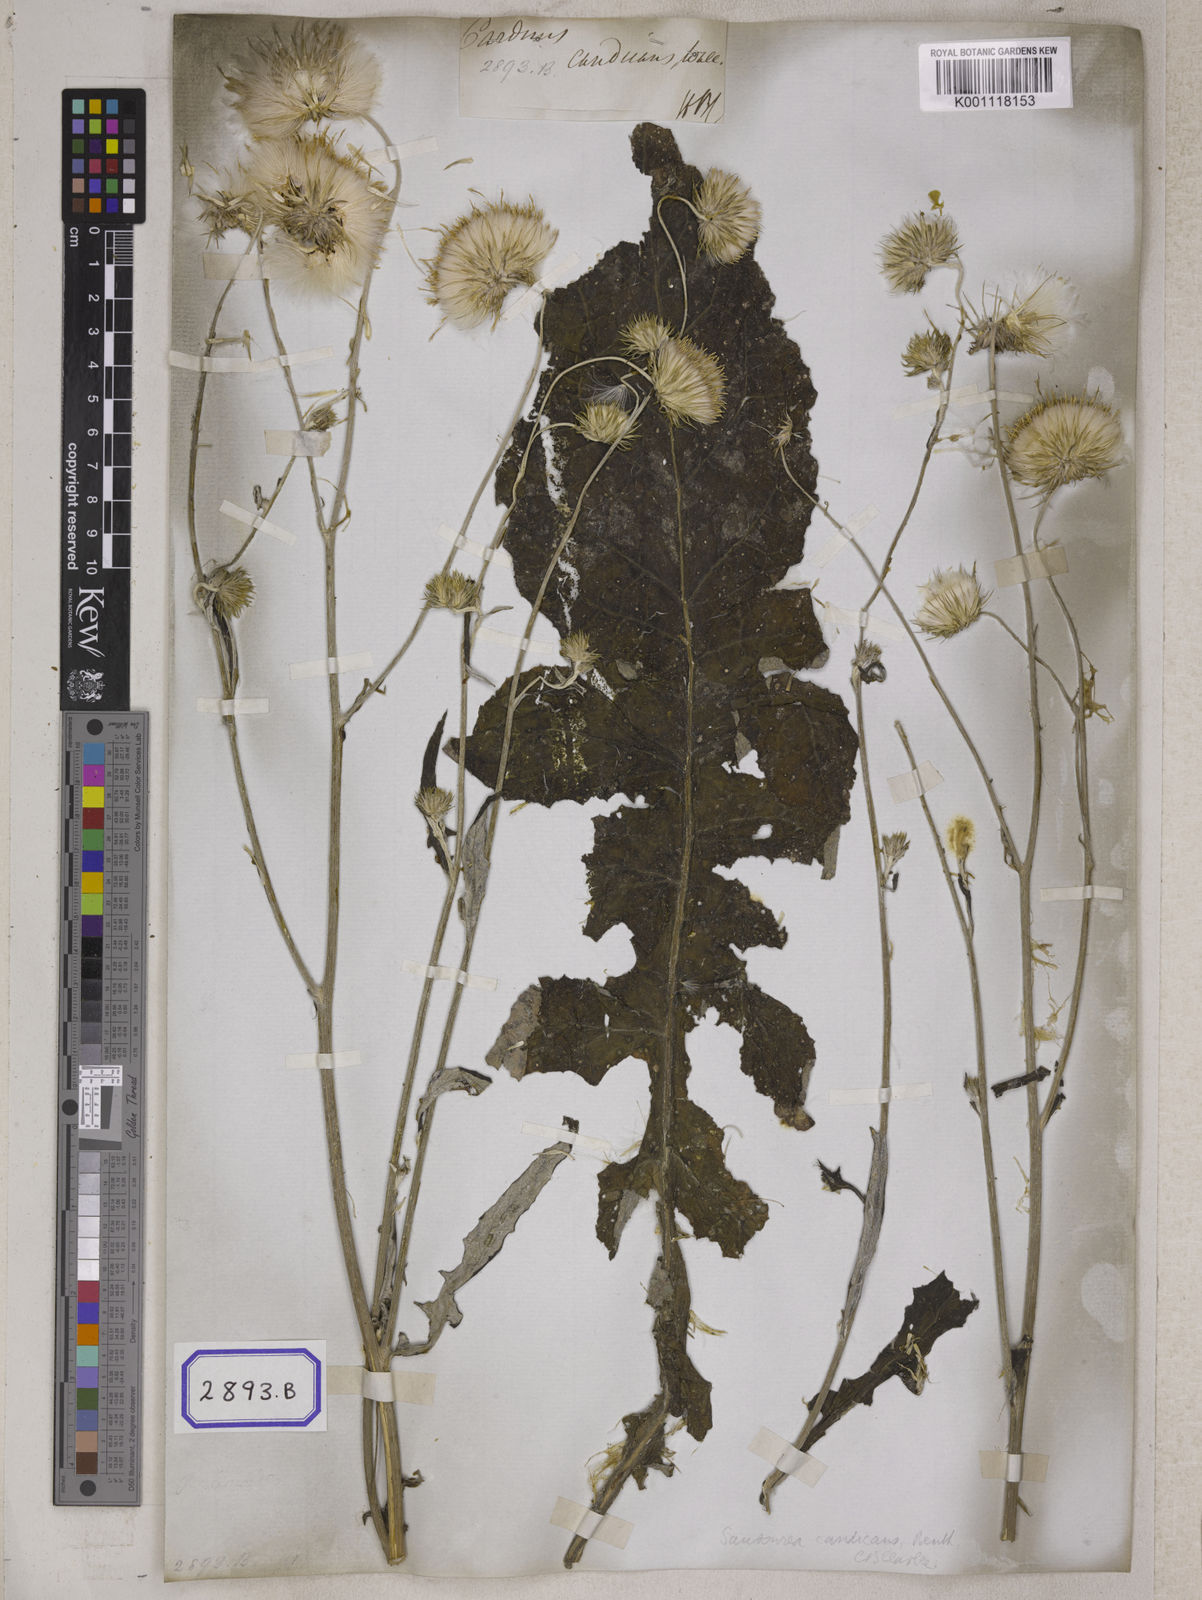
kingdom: Plantae
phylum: Tracheophyta
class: Magnoliopsida
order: Asterales
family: Asteraceae
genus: Jurinea
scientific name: Jurinea heteromalla
